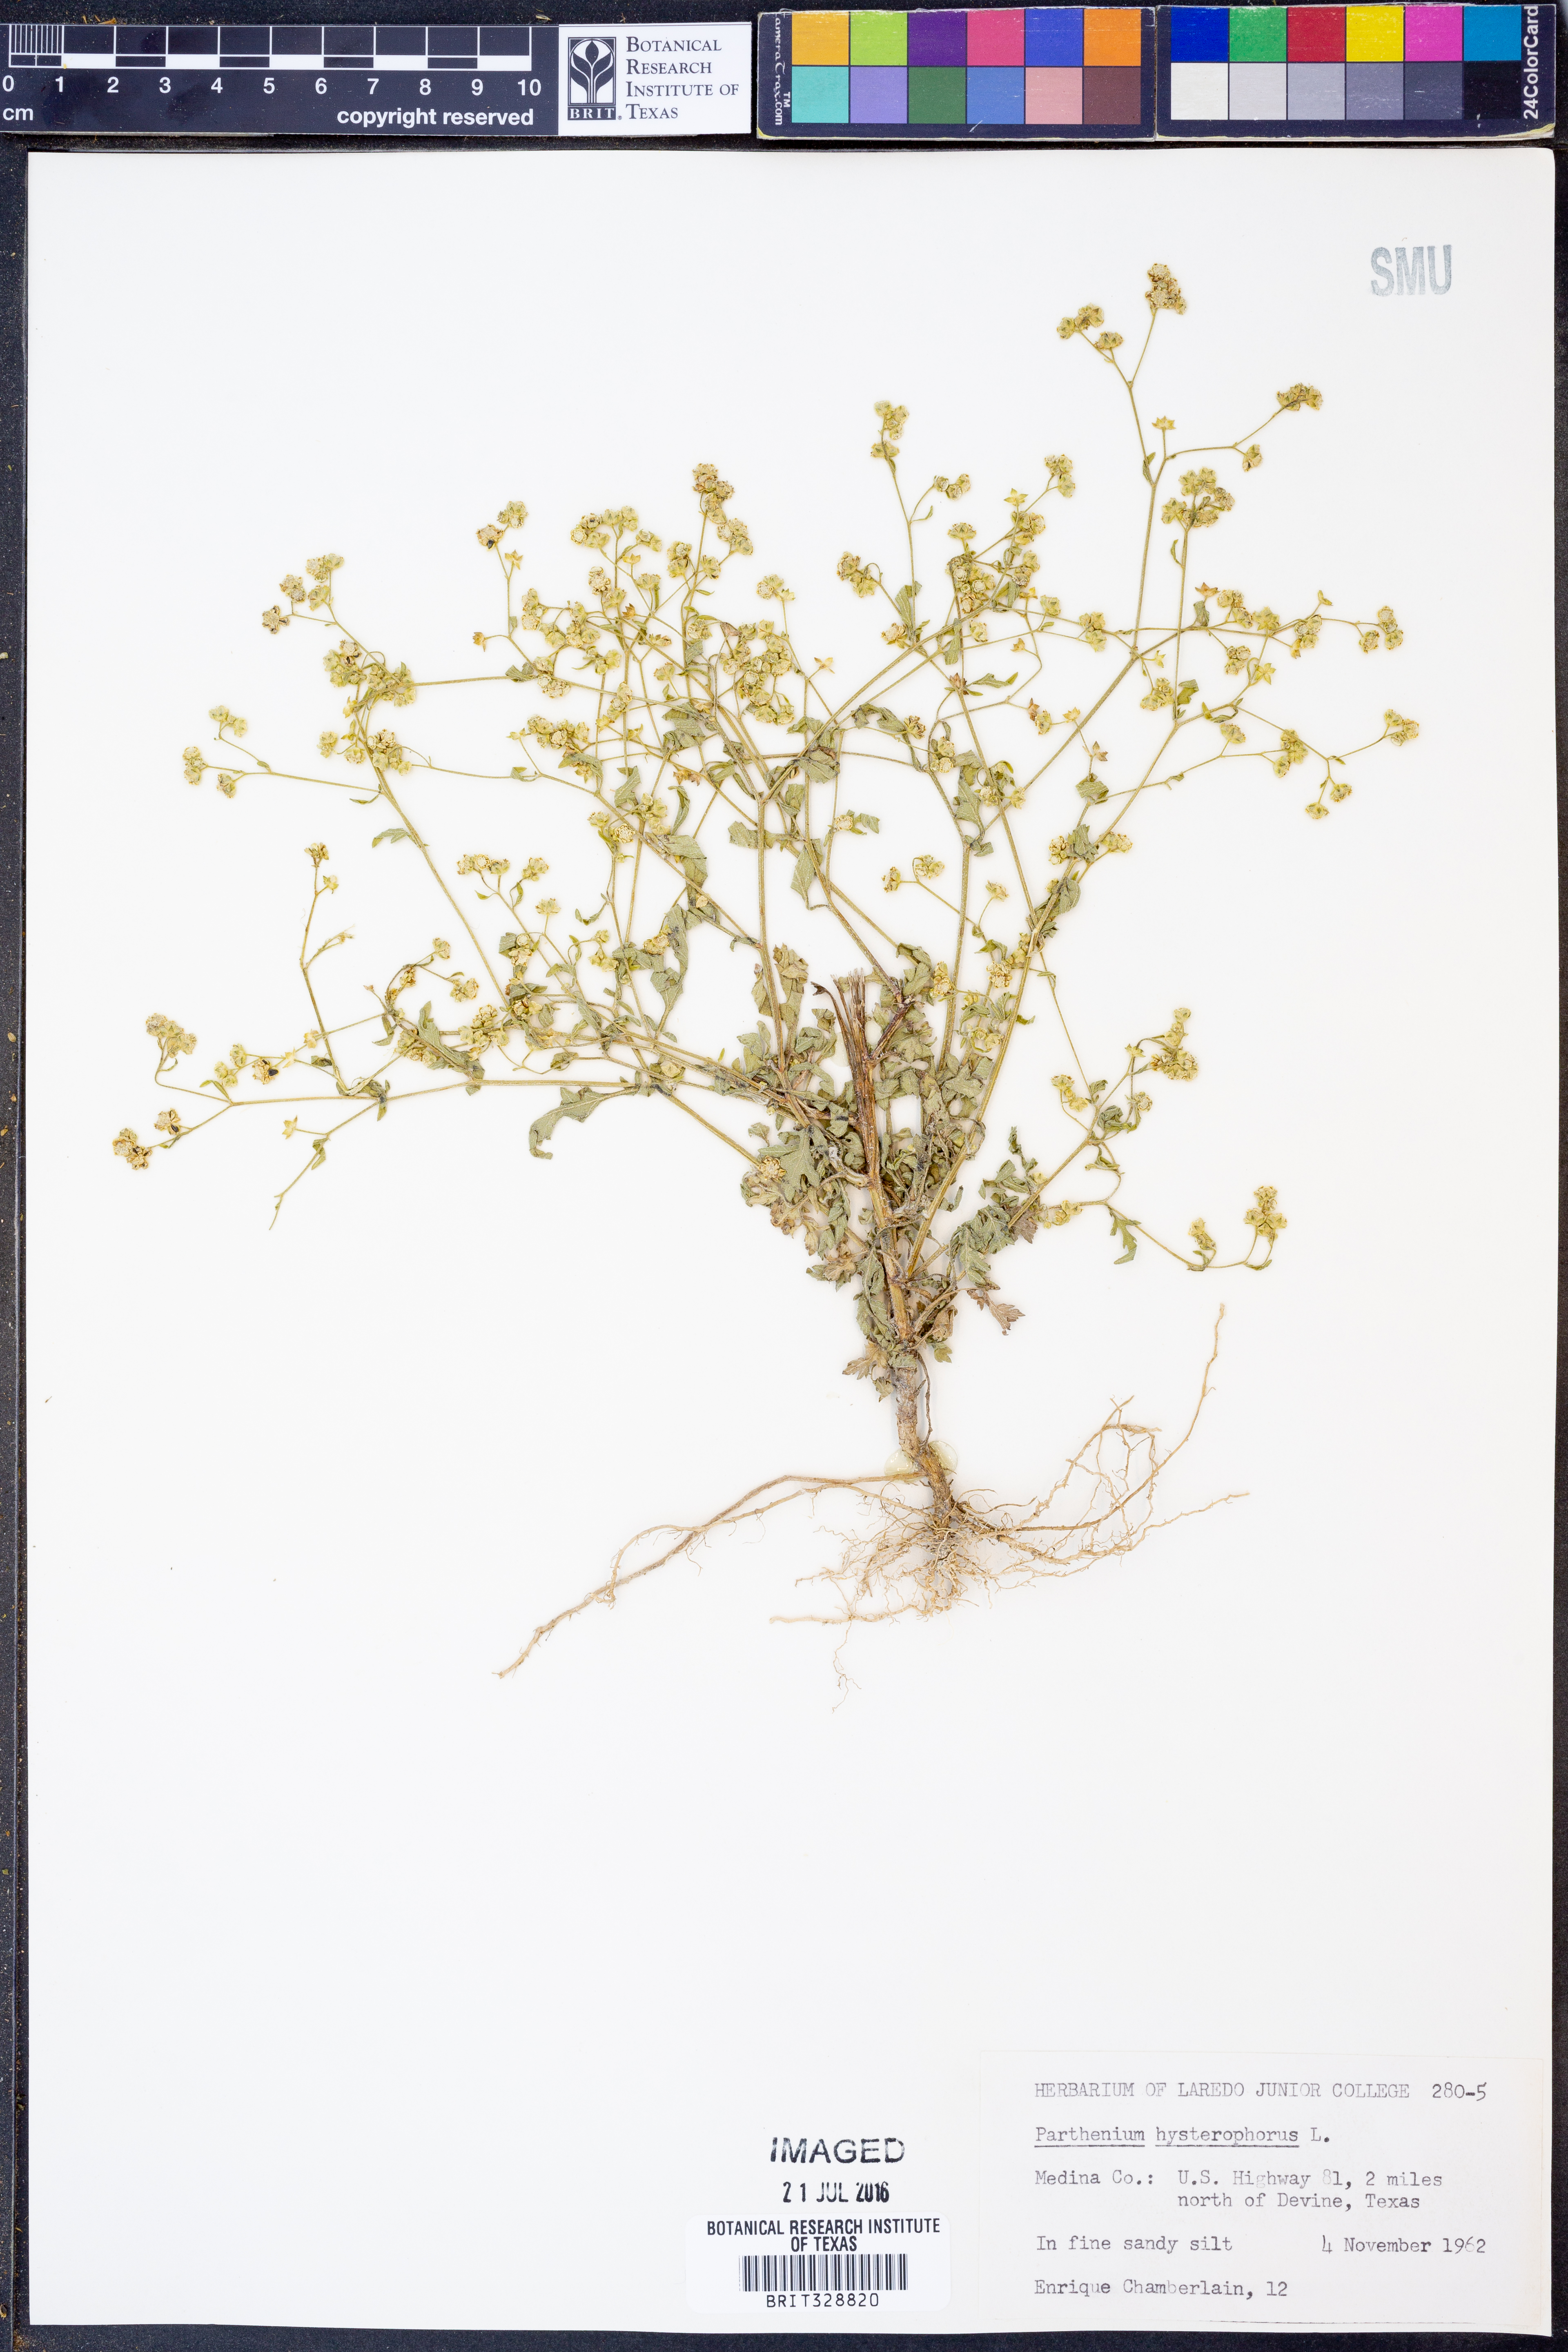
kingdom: Plantae
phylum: Tracheophyta
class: Magnoliopsida
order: Asterales
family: Asteraceae
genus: Parthenium
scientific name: Parthenium hysterophorus
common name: Santa maria feverfew
